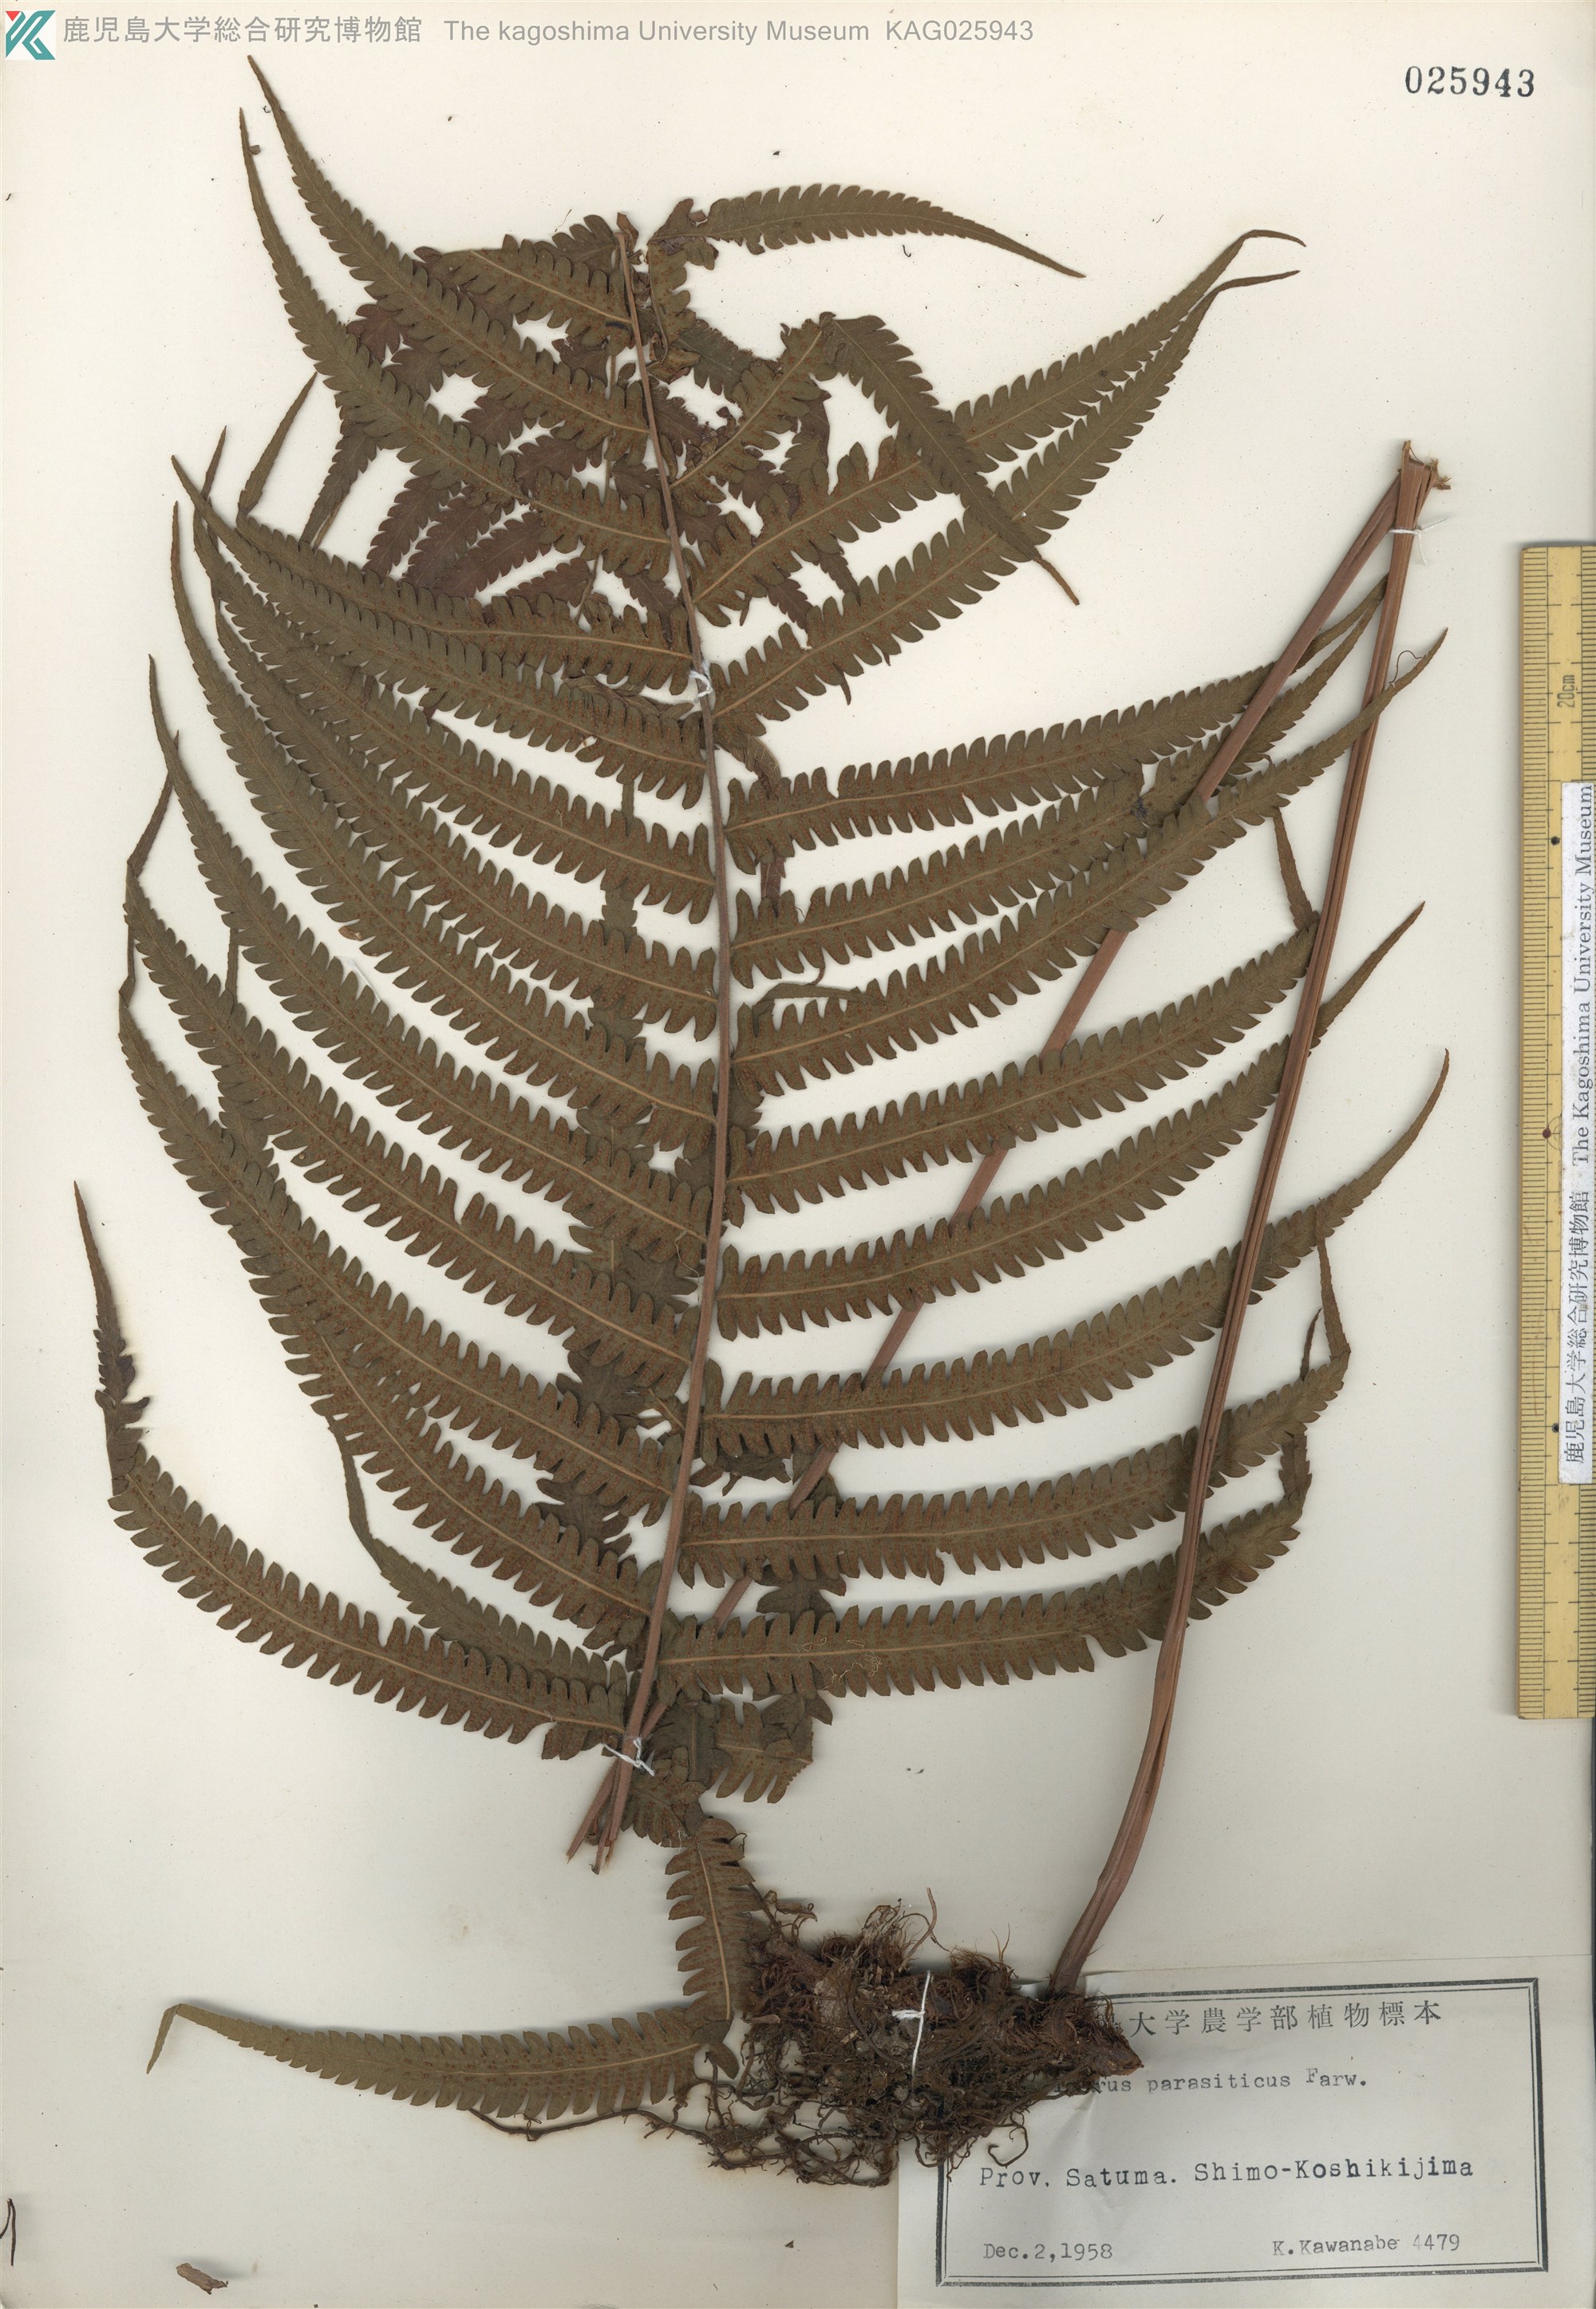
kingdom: Plantae
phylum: Tracheophyta
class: Polypodiopsida
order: Polypodiales
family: Thelypteridaceae
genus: Christella
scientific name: Christella parasitica
